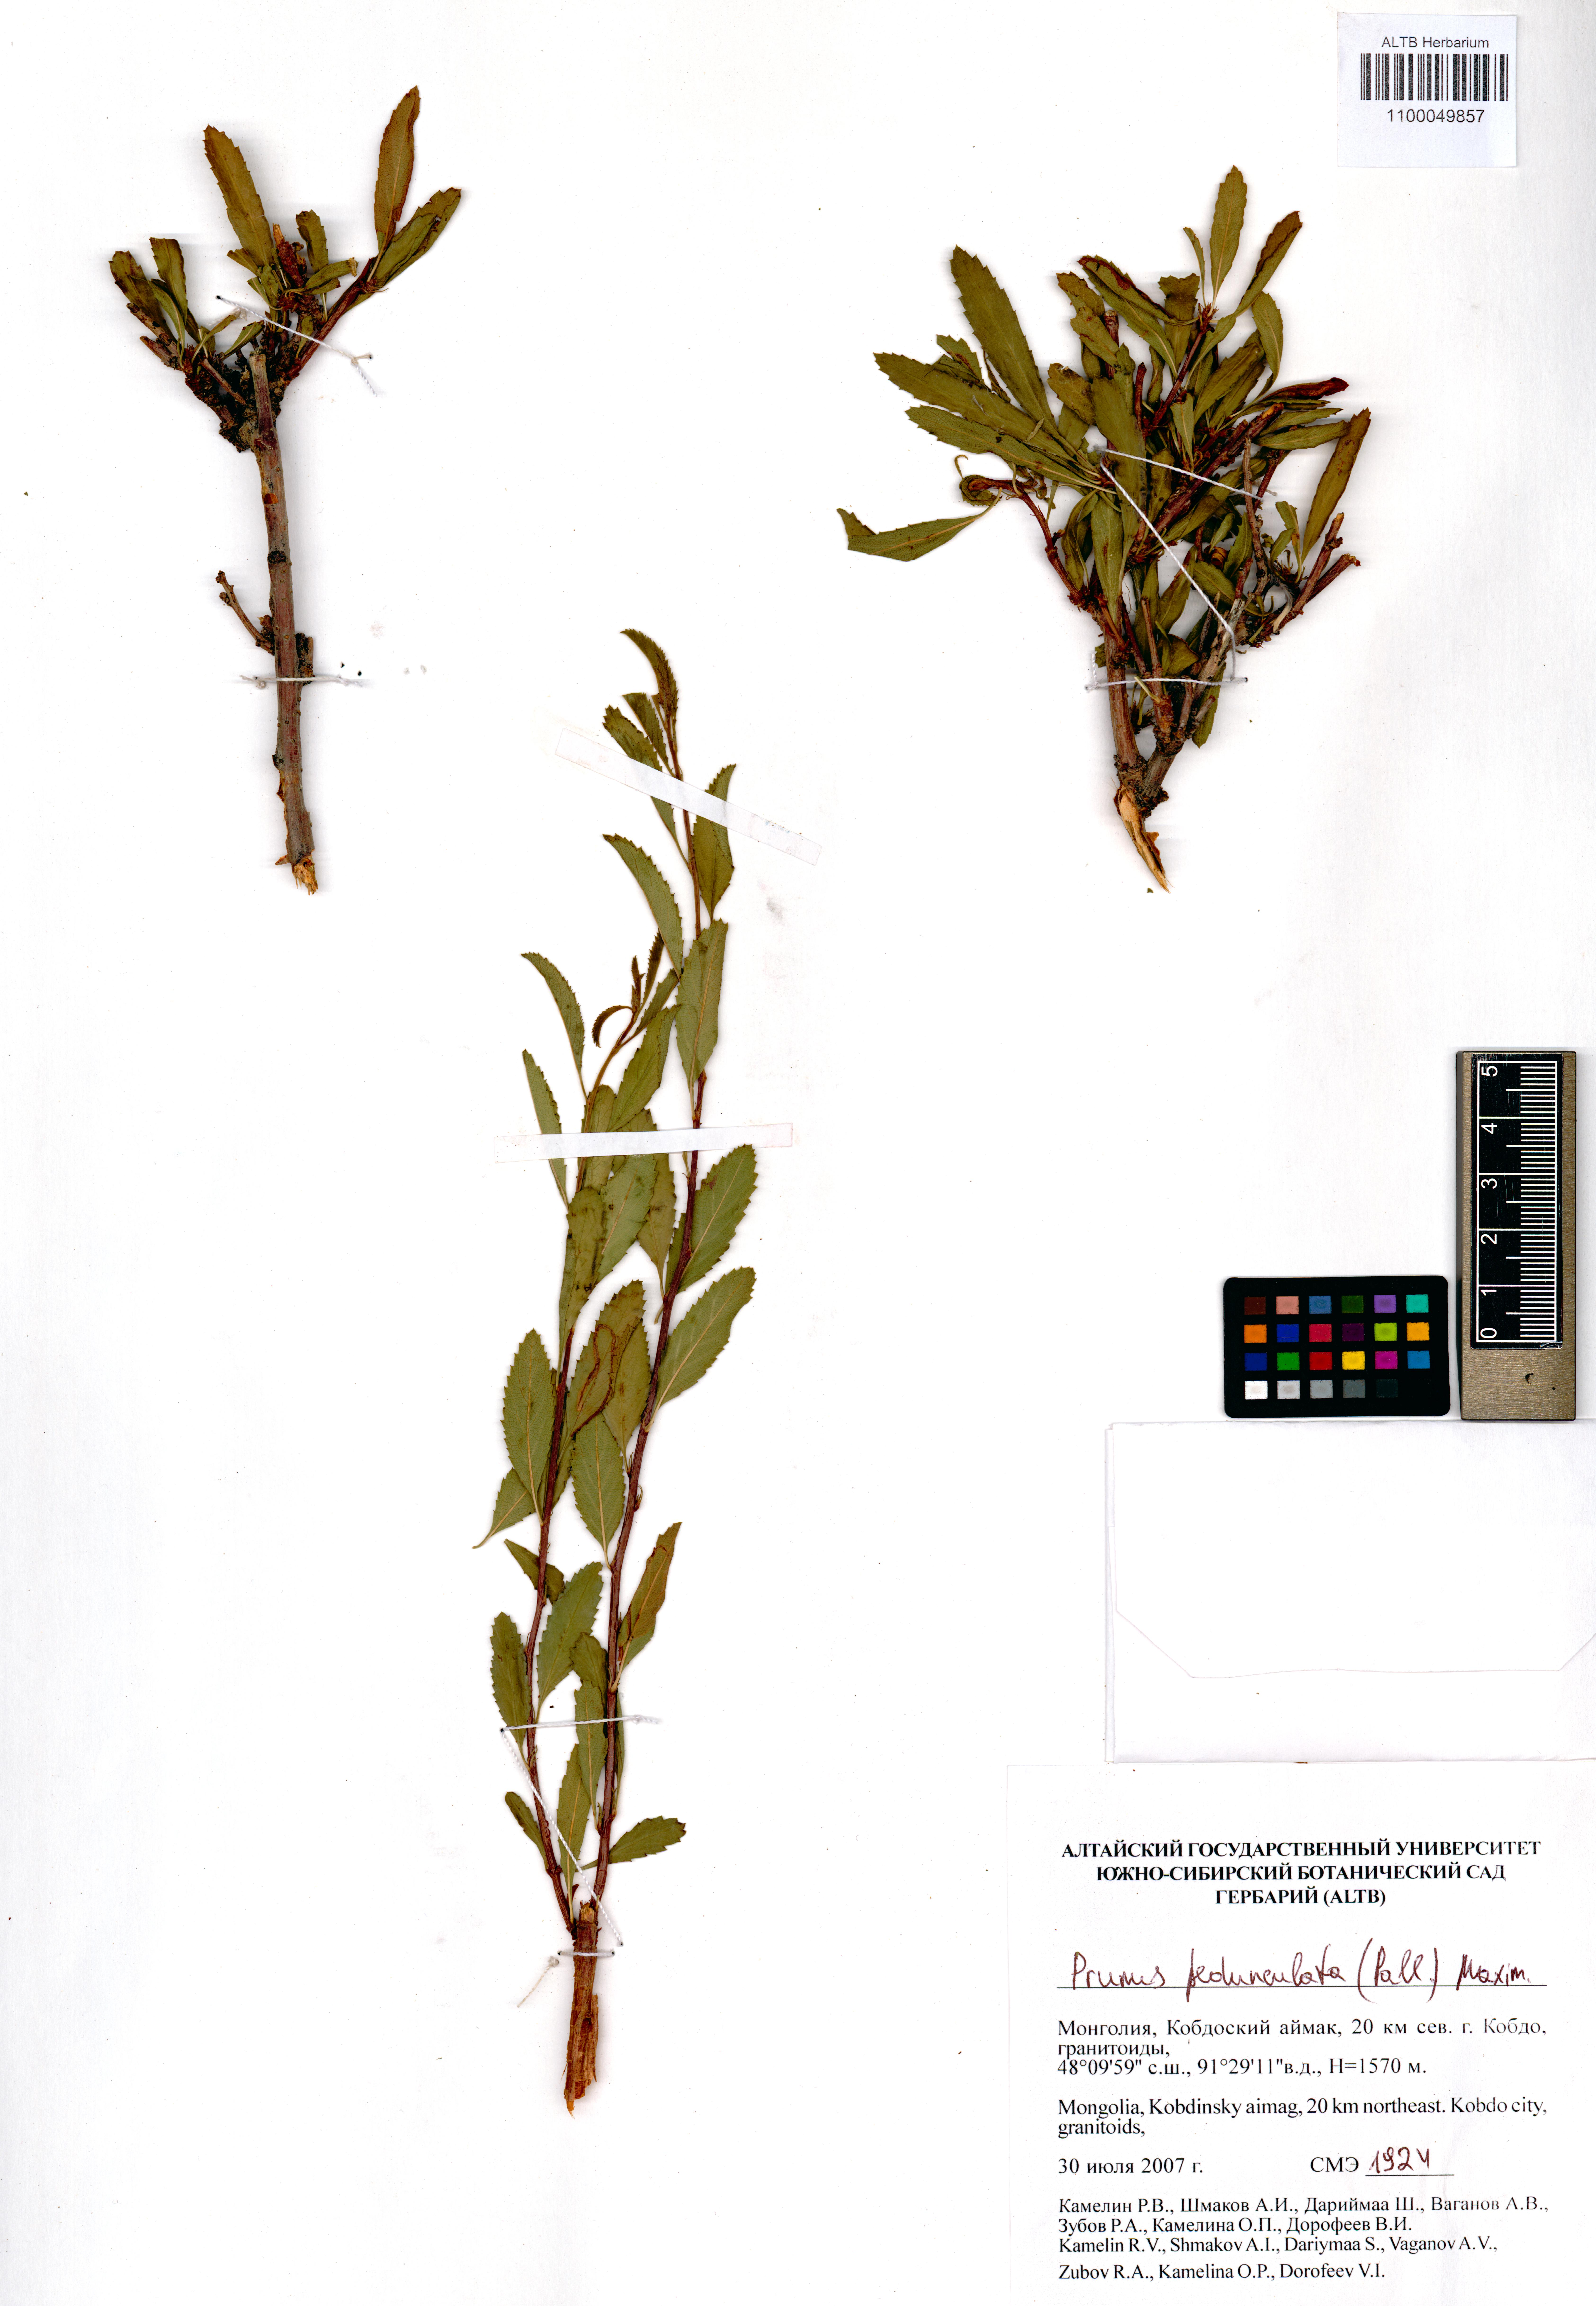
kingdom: Plantae
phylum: Tracheophyta
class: Magnoliopsida
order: Rosales
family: Rosaceae
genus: Prunus
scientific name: Prunus pedunculata
